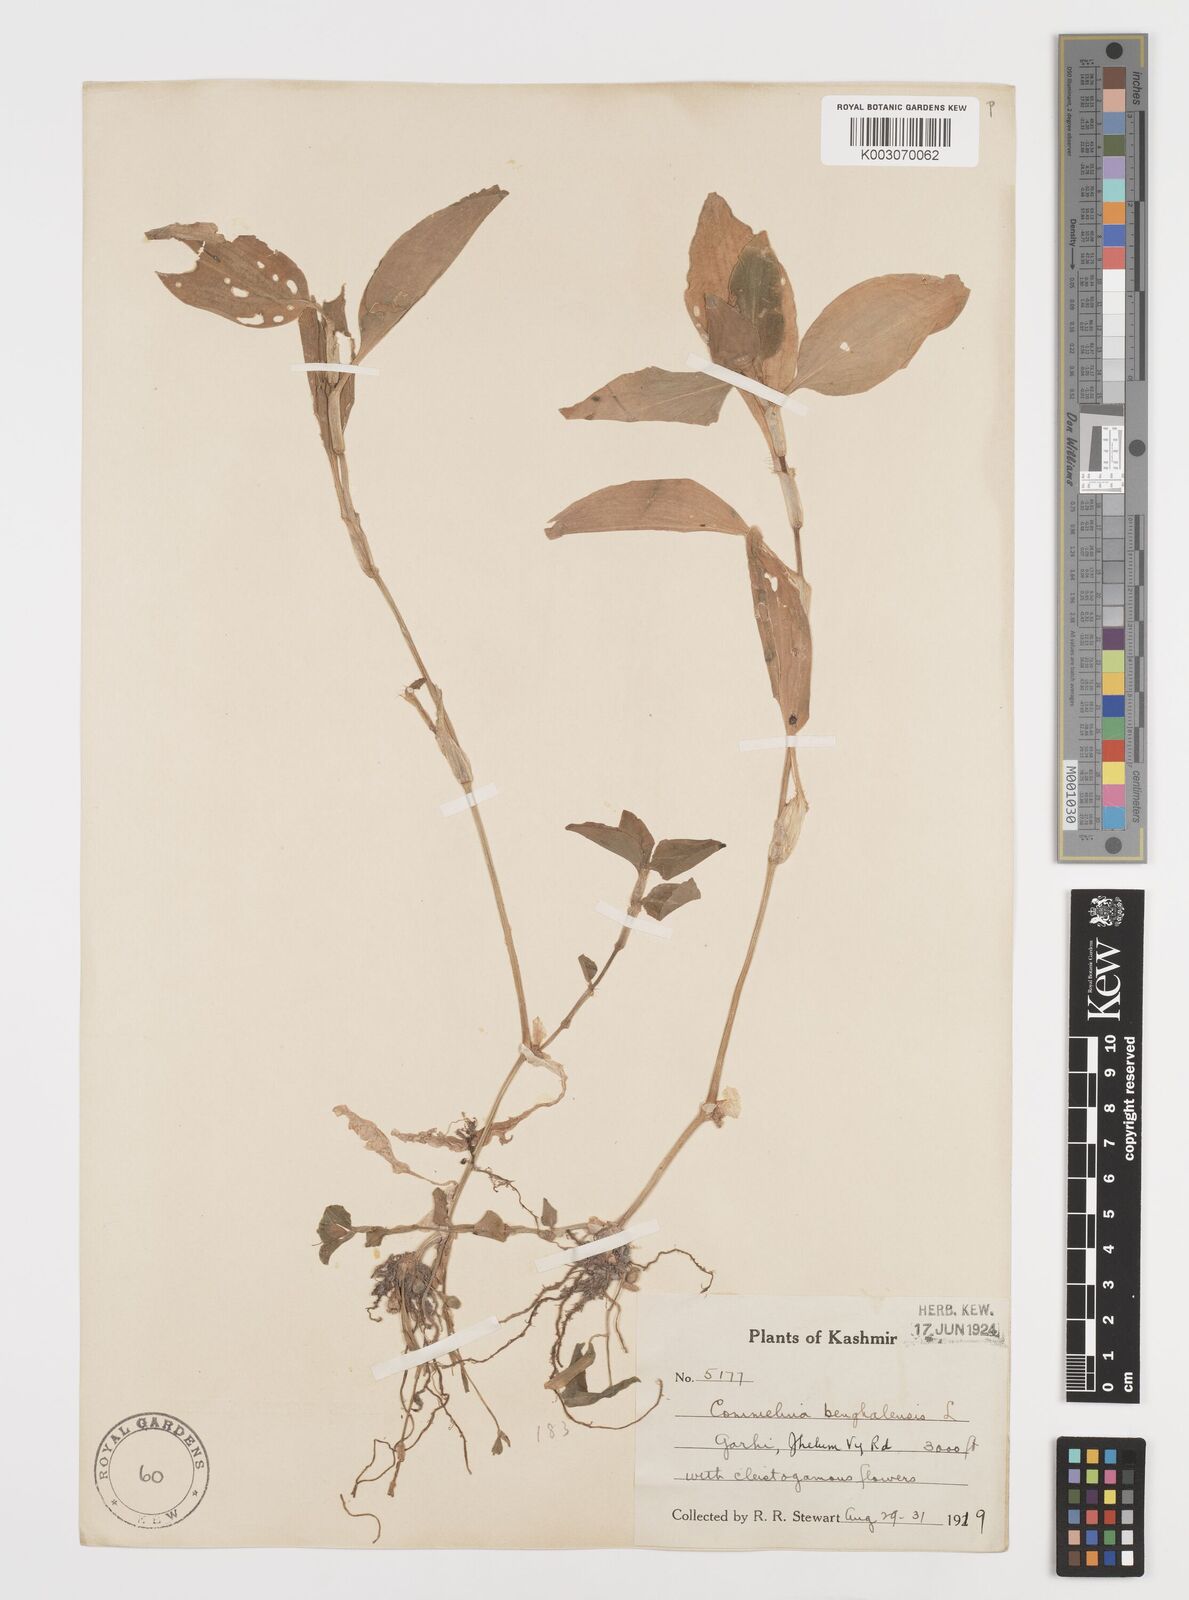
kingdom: Plantae
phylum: Tracheophyta
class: Liliopsida
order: Commelinales
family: Commelinaceae
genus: Commelina
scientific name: Commelina benghalensis
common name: Jio
